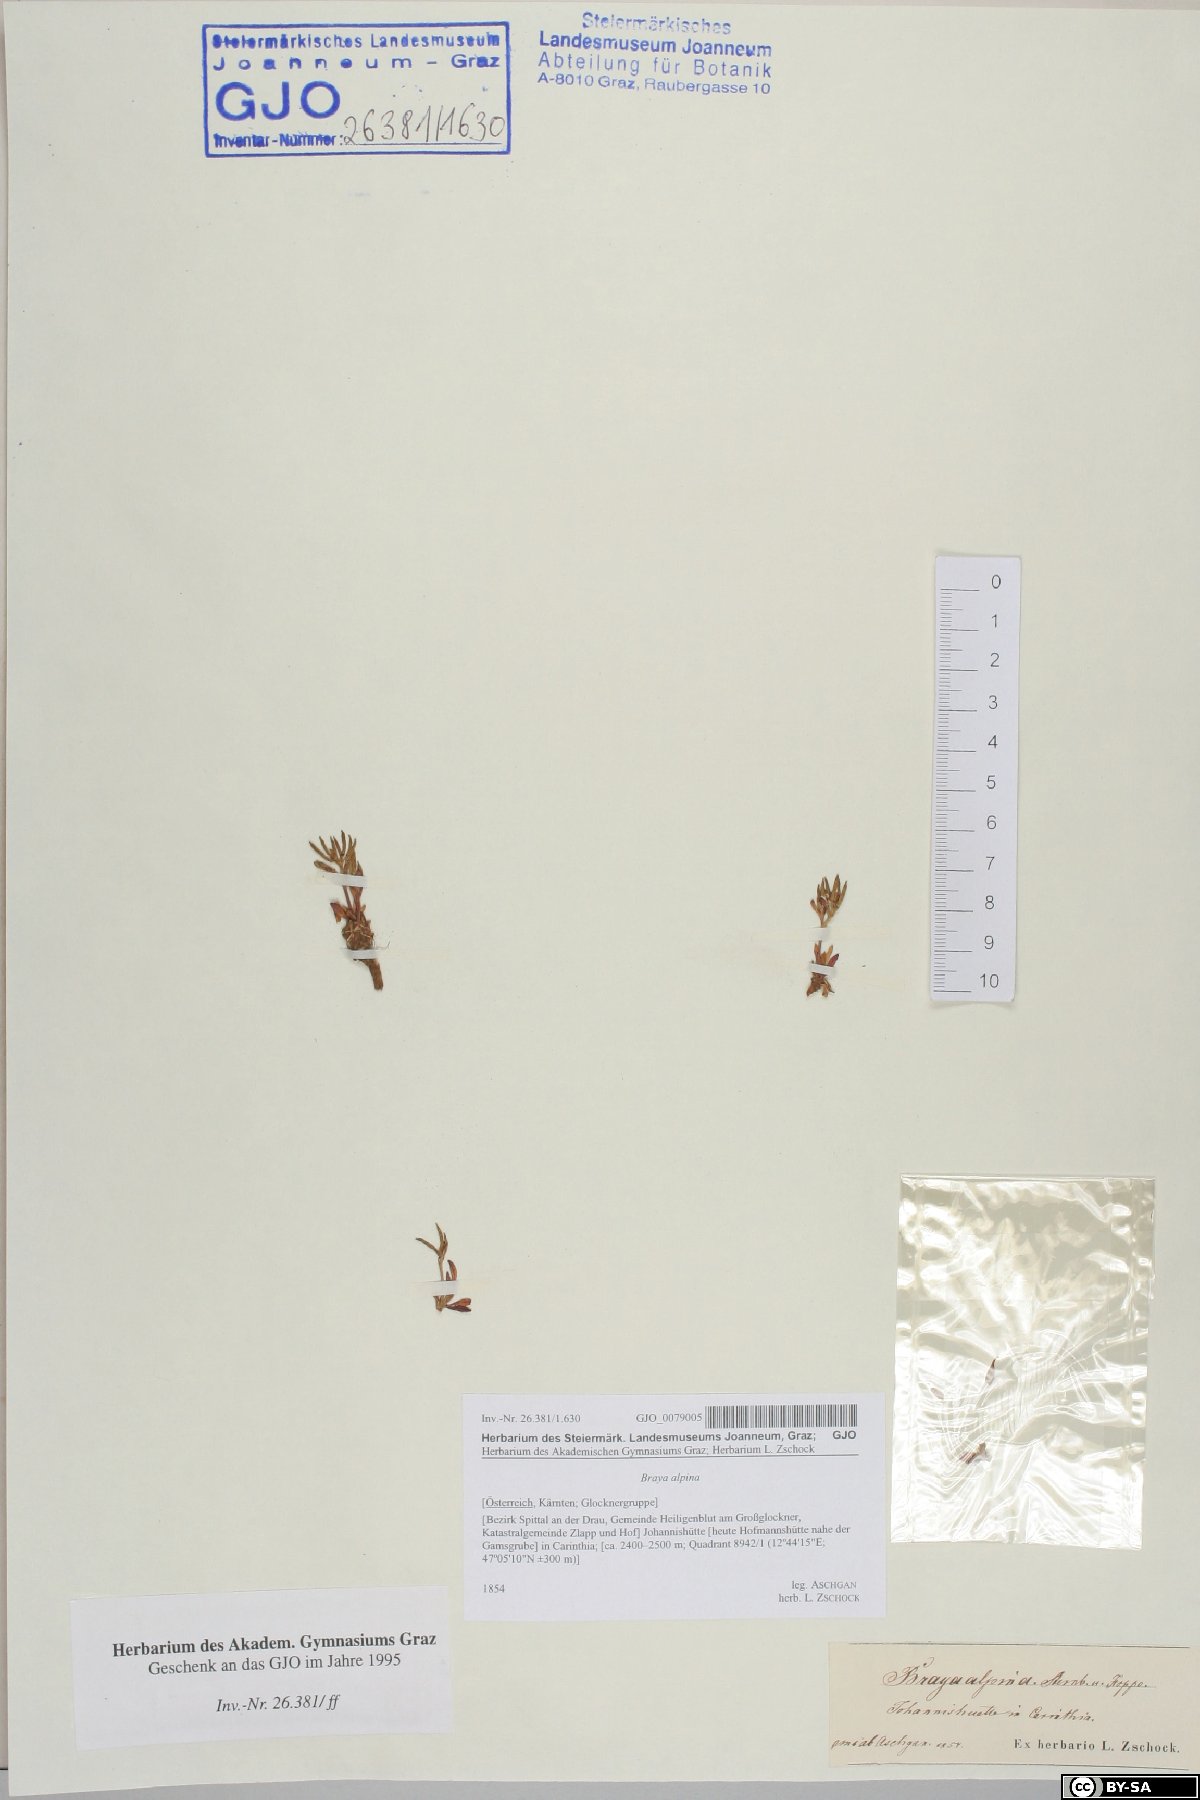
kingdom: Plantae
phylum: Tracheophyta
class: Magnoliopsida
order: Brassicales
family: Brassicaceae
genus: Braya
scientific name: Braya alpina
